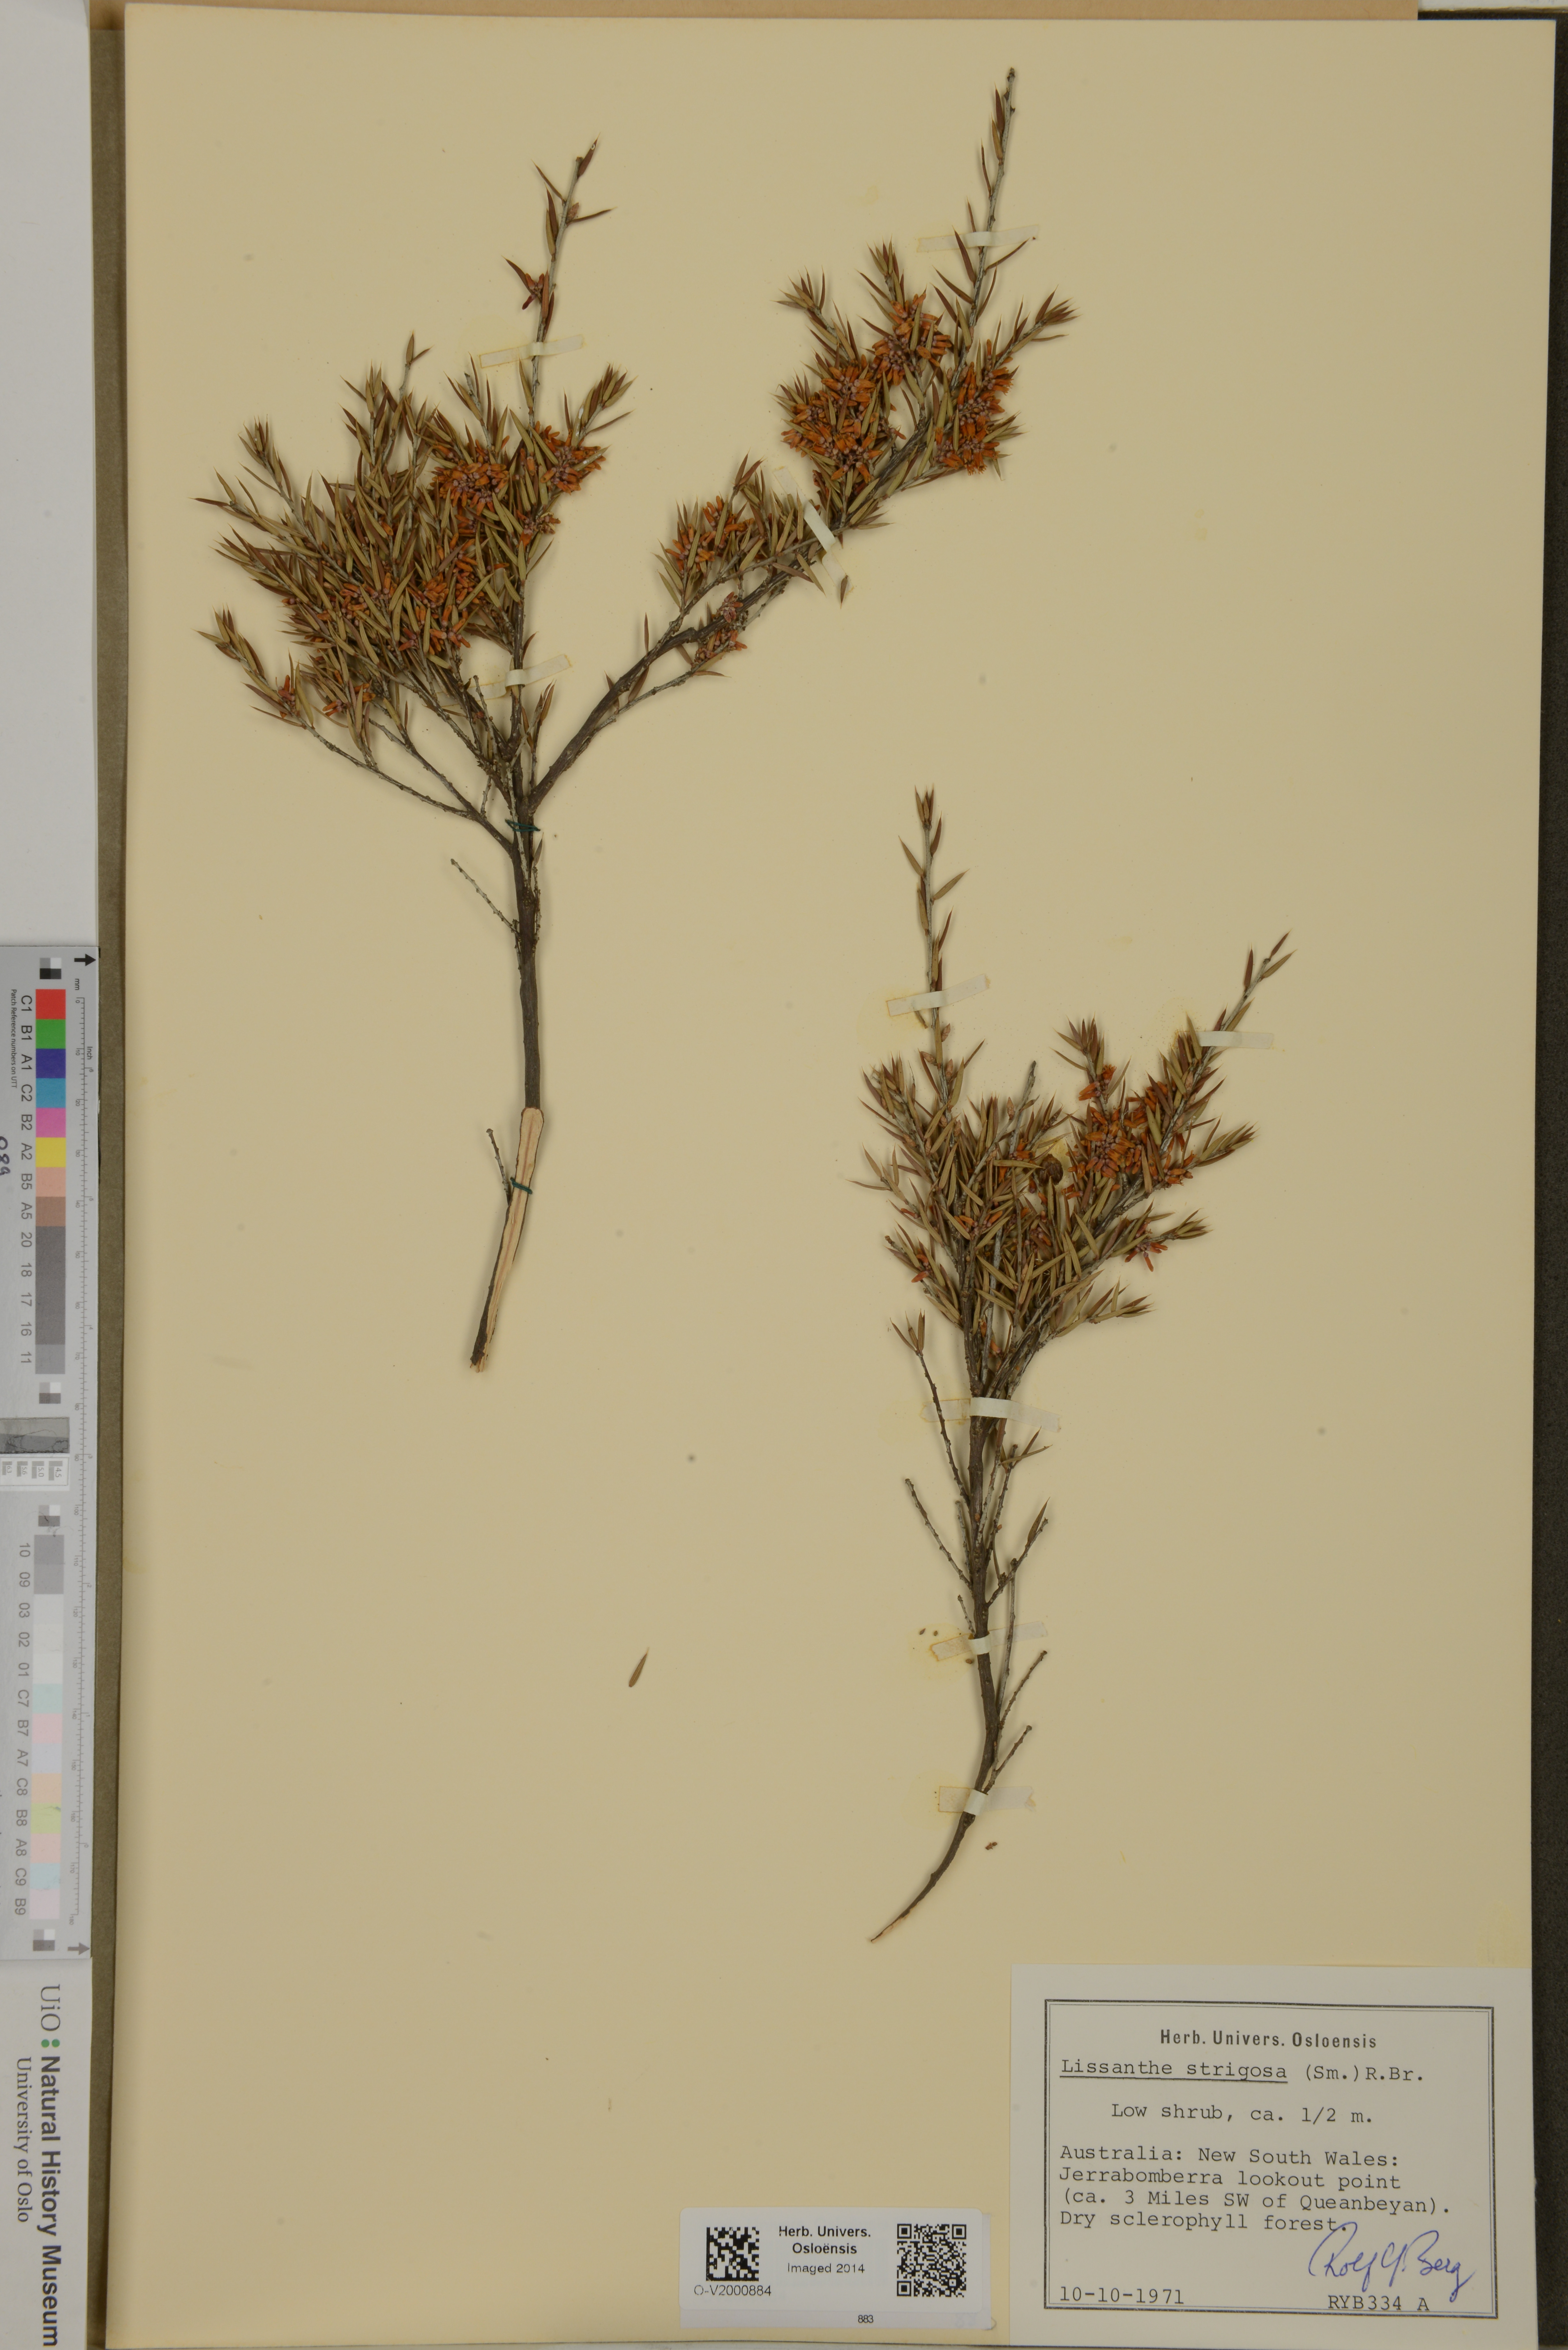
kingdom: Plantae
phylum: Tracheophyta
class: Magnoliopsida
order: Ericales
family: Ericaceae
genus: Lissanthe
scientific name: Lissanthe strigosa
